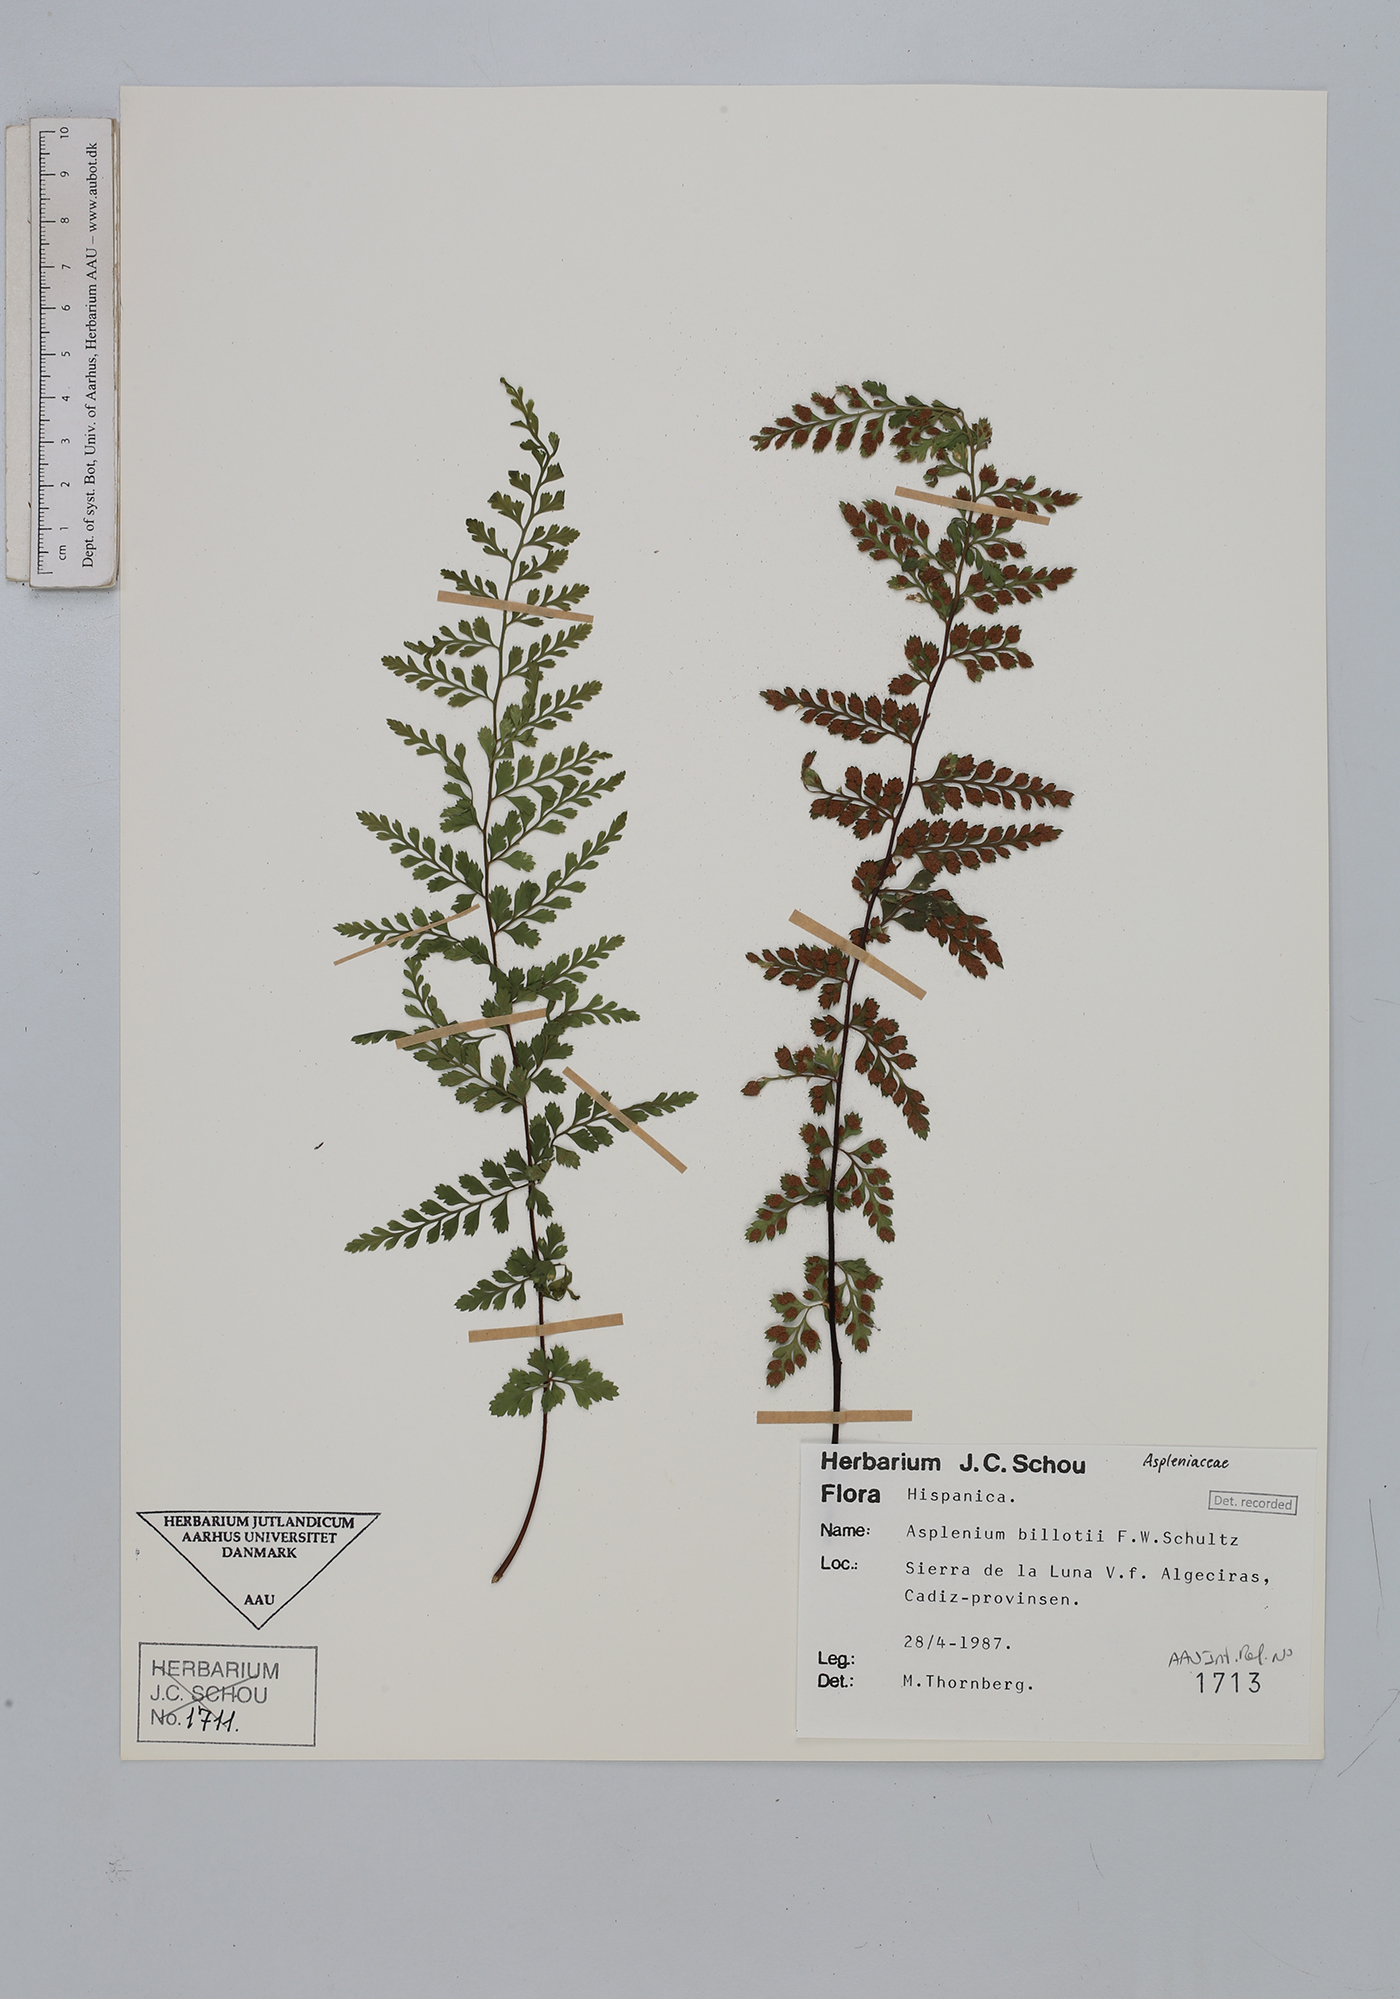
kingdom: Plantae
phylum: Tracheophyta
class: Polypodiopsida
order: Polypodiales
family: Aspleniaceae
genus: Asplenium
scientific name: Asplenium obovatum
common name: Lanceolate spleenwort
